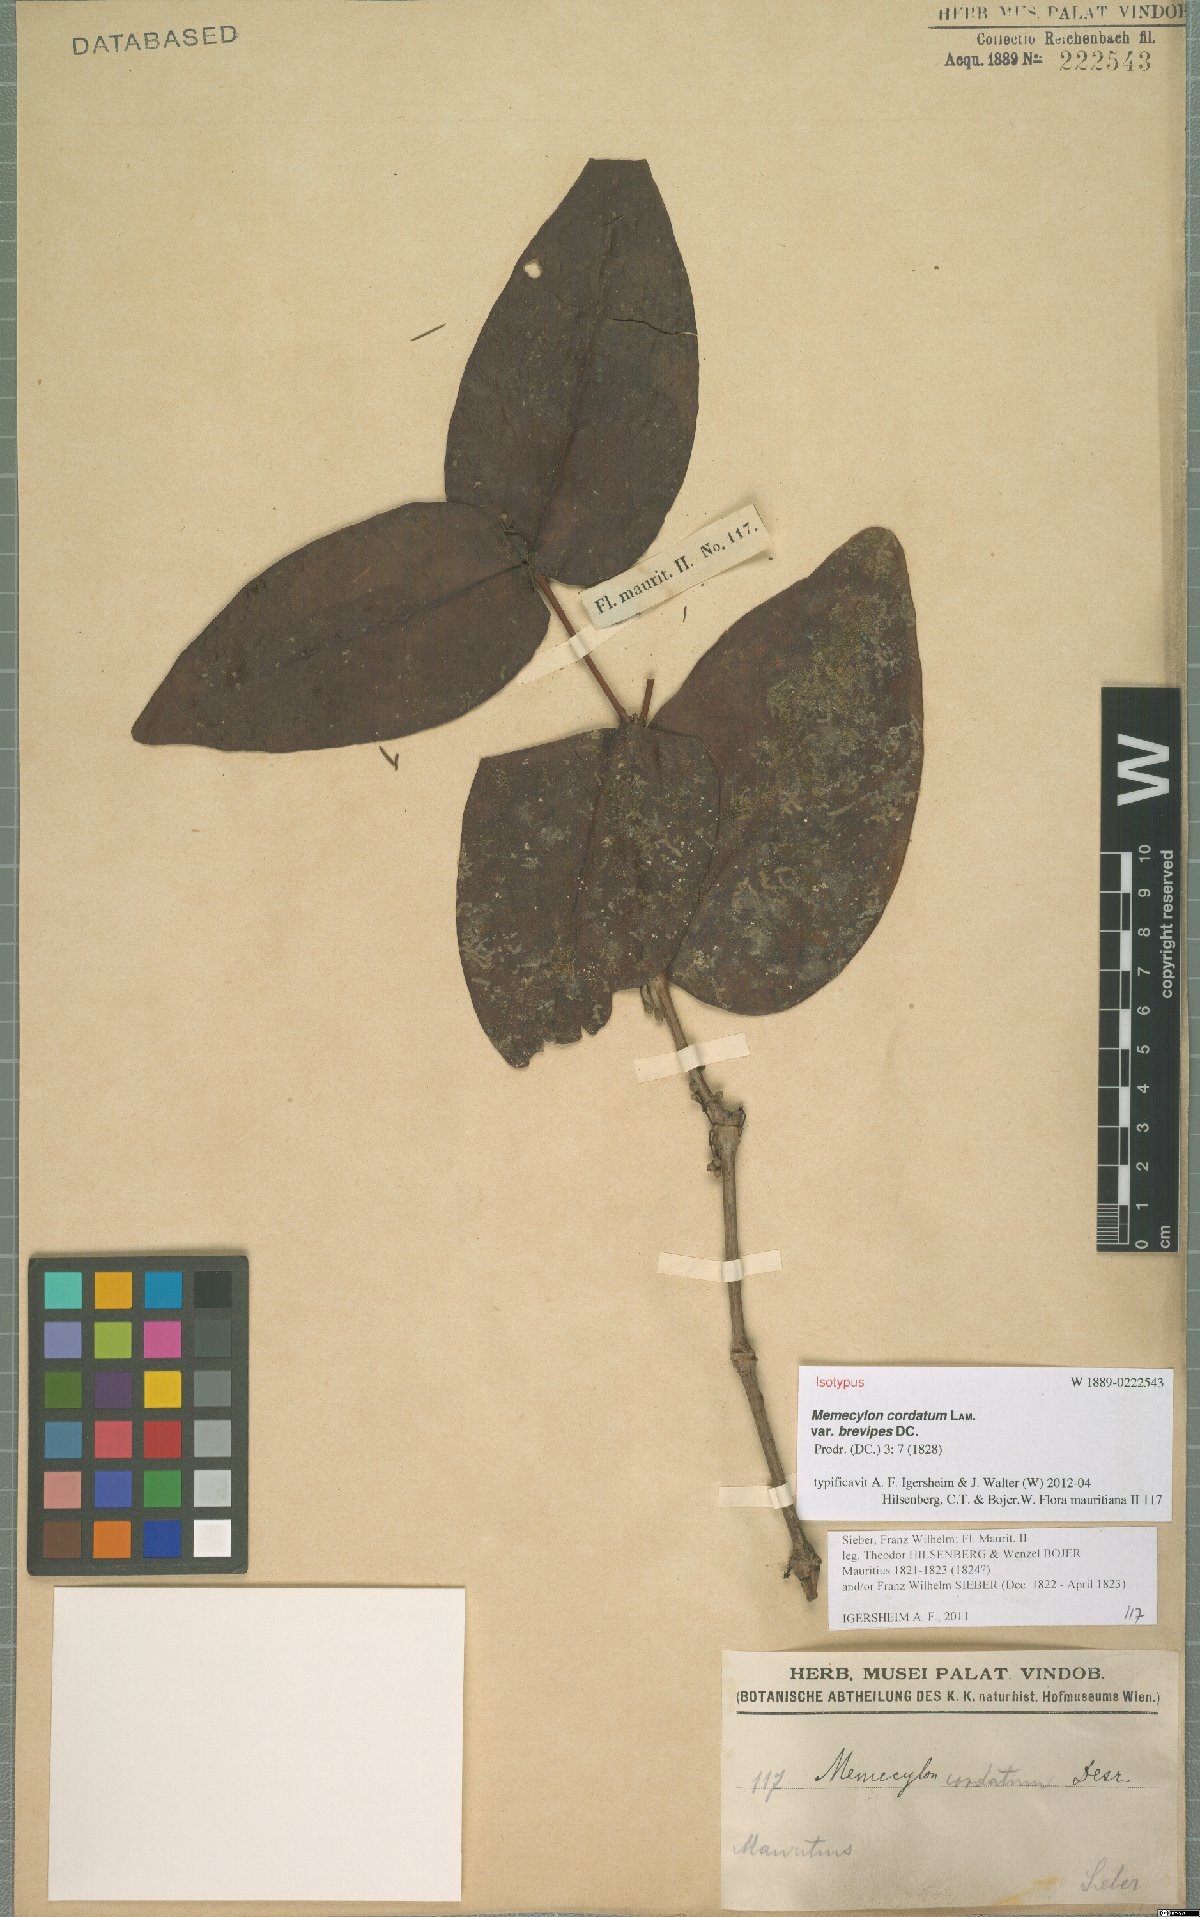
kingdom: Plantae
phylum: Tracheophyta
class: Magnoliopsida
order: Myrtales
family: Melastomataceae
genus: Memecylon
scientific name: Memecylon cordatum
